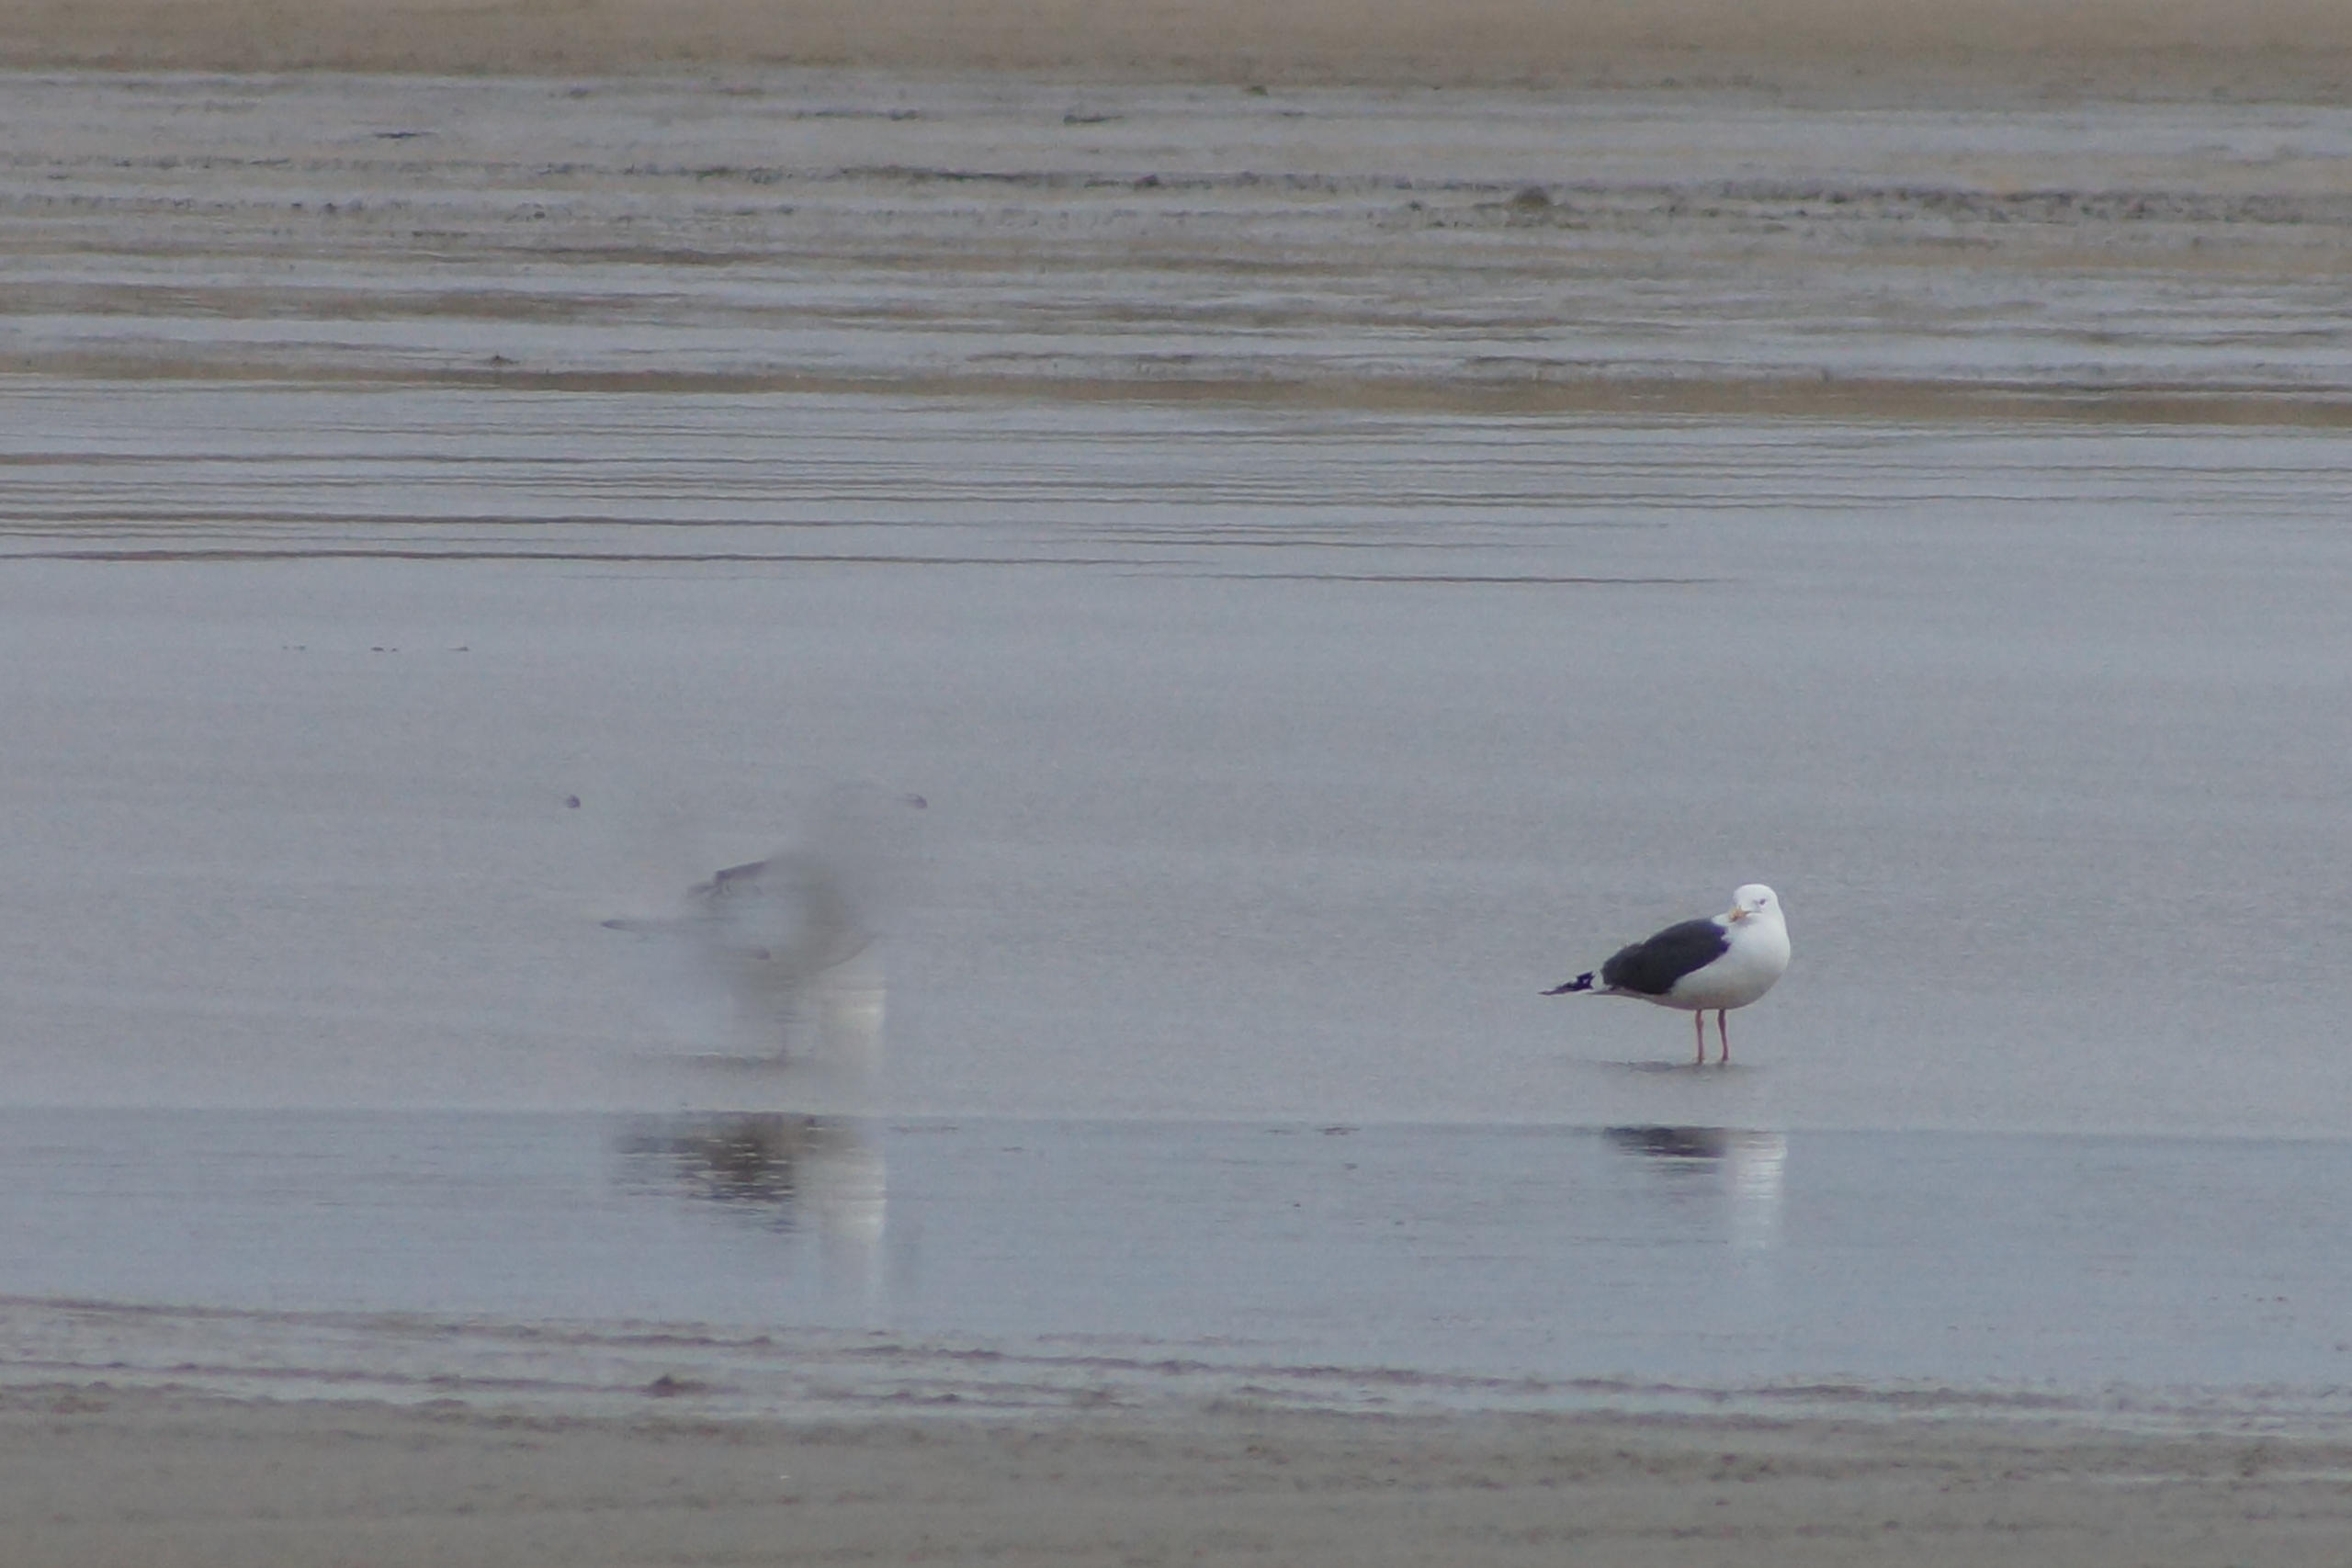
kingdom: Animalia
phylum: Chordata
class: Aves
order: Charadriiformes
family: Laridae
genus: Larus
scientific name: Larus marinus
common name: Svartbag
